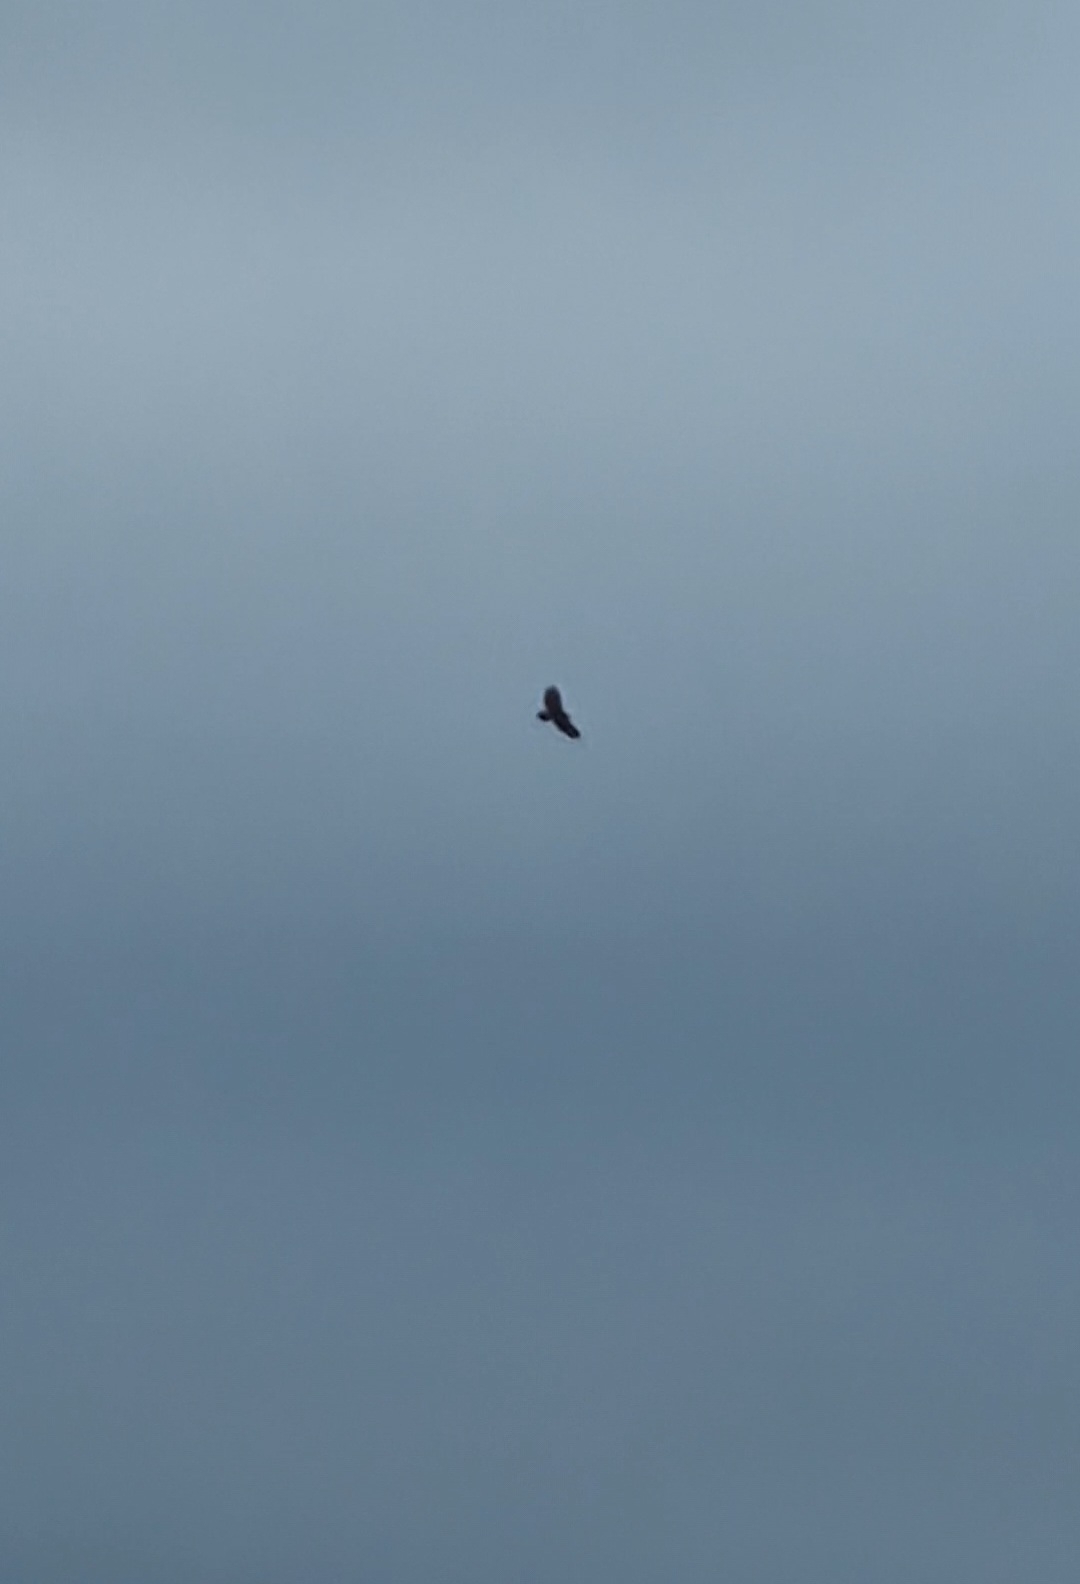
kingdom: Animalia
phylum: Chordata
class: Aves
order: Accipitriformes
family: Accipitridae
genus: Buteo
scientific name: Buteo buteo
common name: Musvåge
